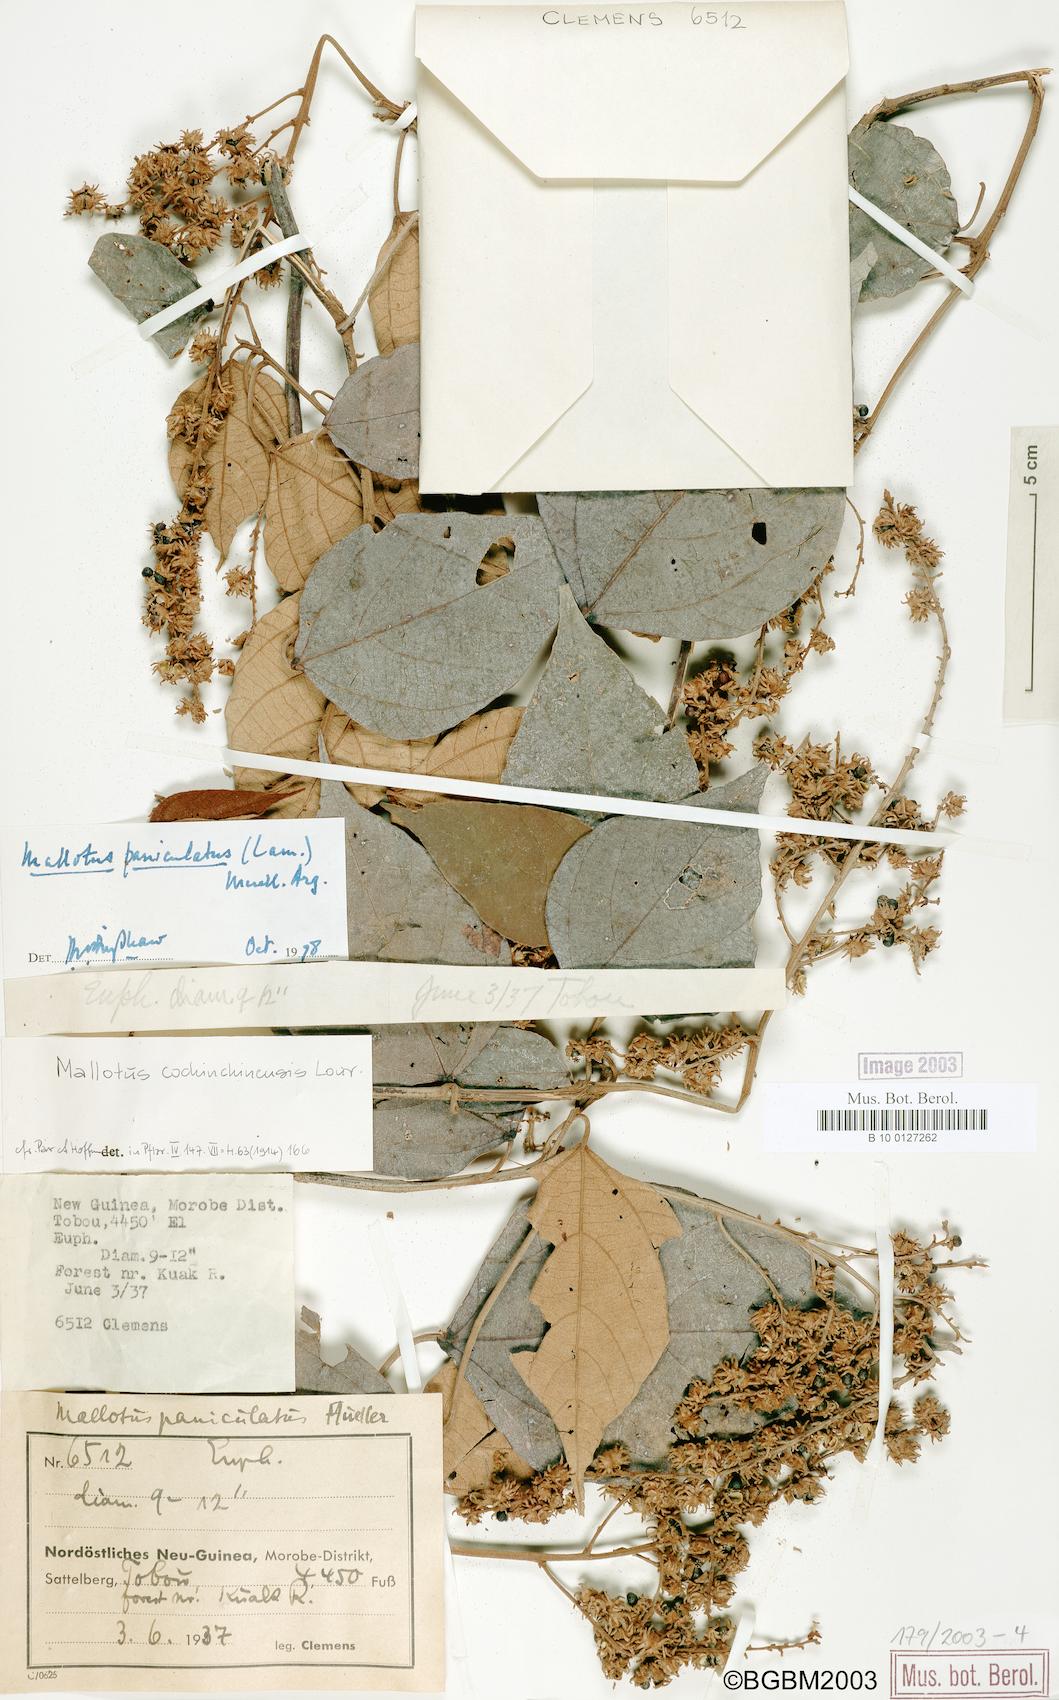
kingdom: Plantae
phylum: Tracheophyta
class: Magnoliopsida
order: Malpighiales
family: Euphorbiaceae
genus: Mallotus
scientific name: Mallotus paniculatus
